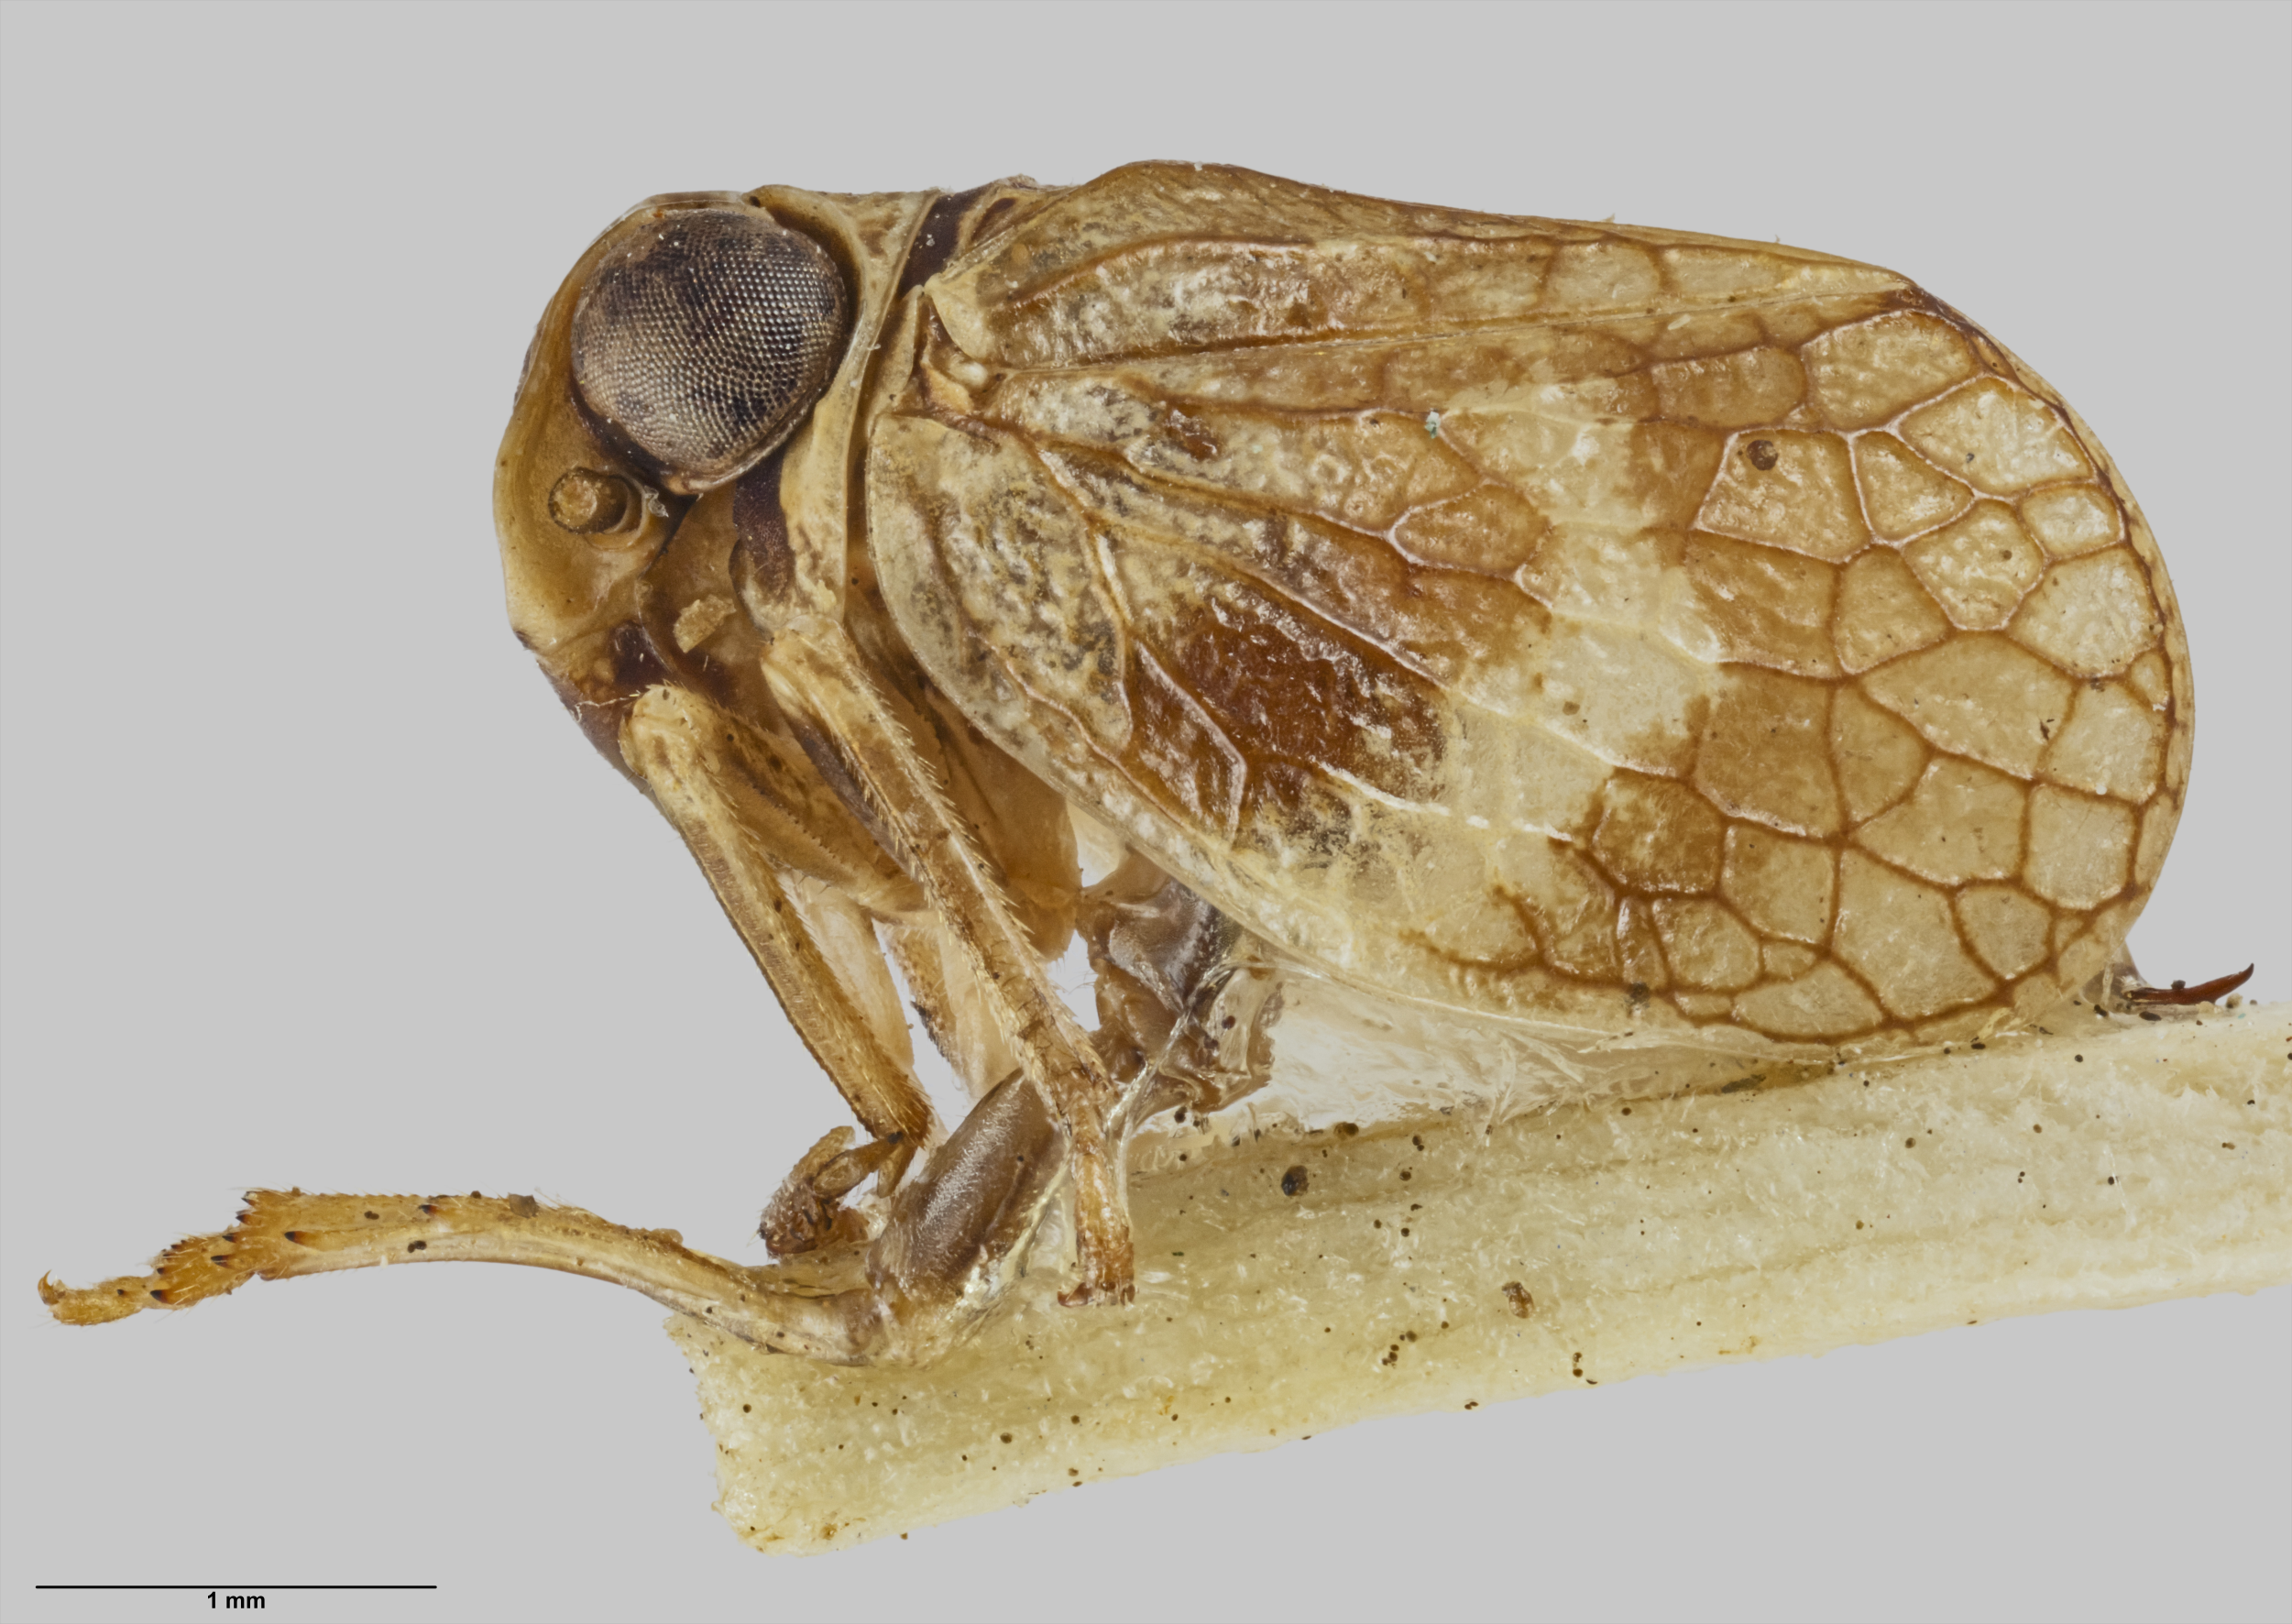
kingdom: Animalia
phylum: Arthropoda
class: Insecta
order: Hemiptera
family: Nogodinidae
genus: Atylana
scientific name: Atylana rarotongae
